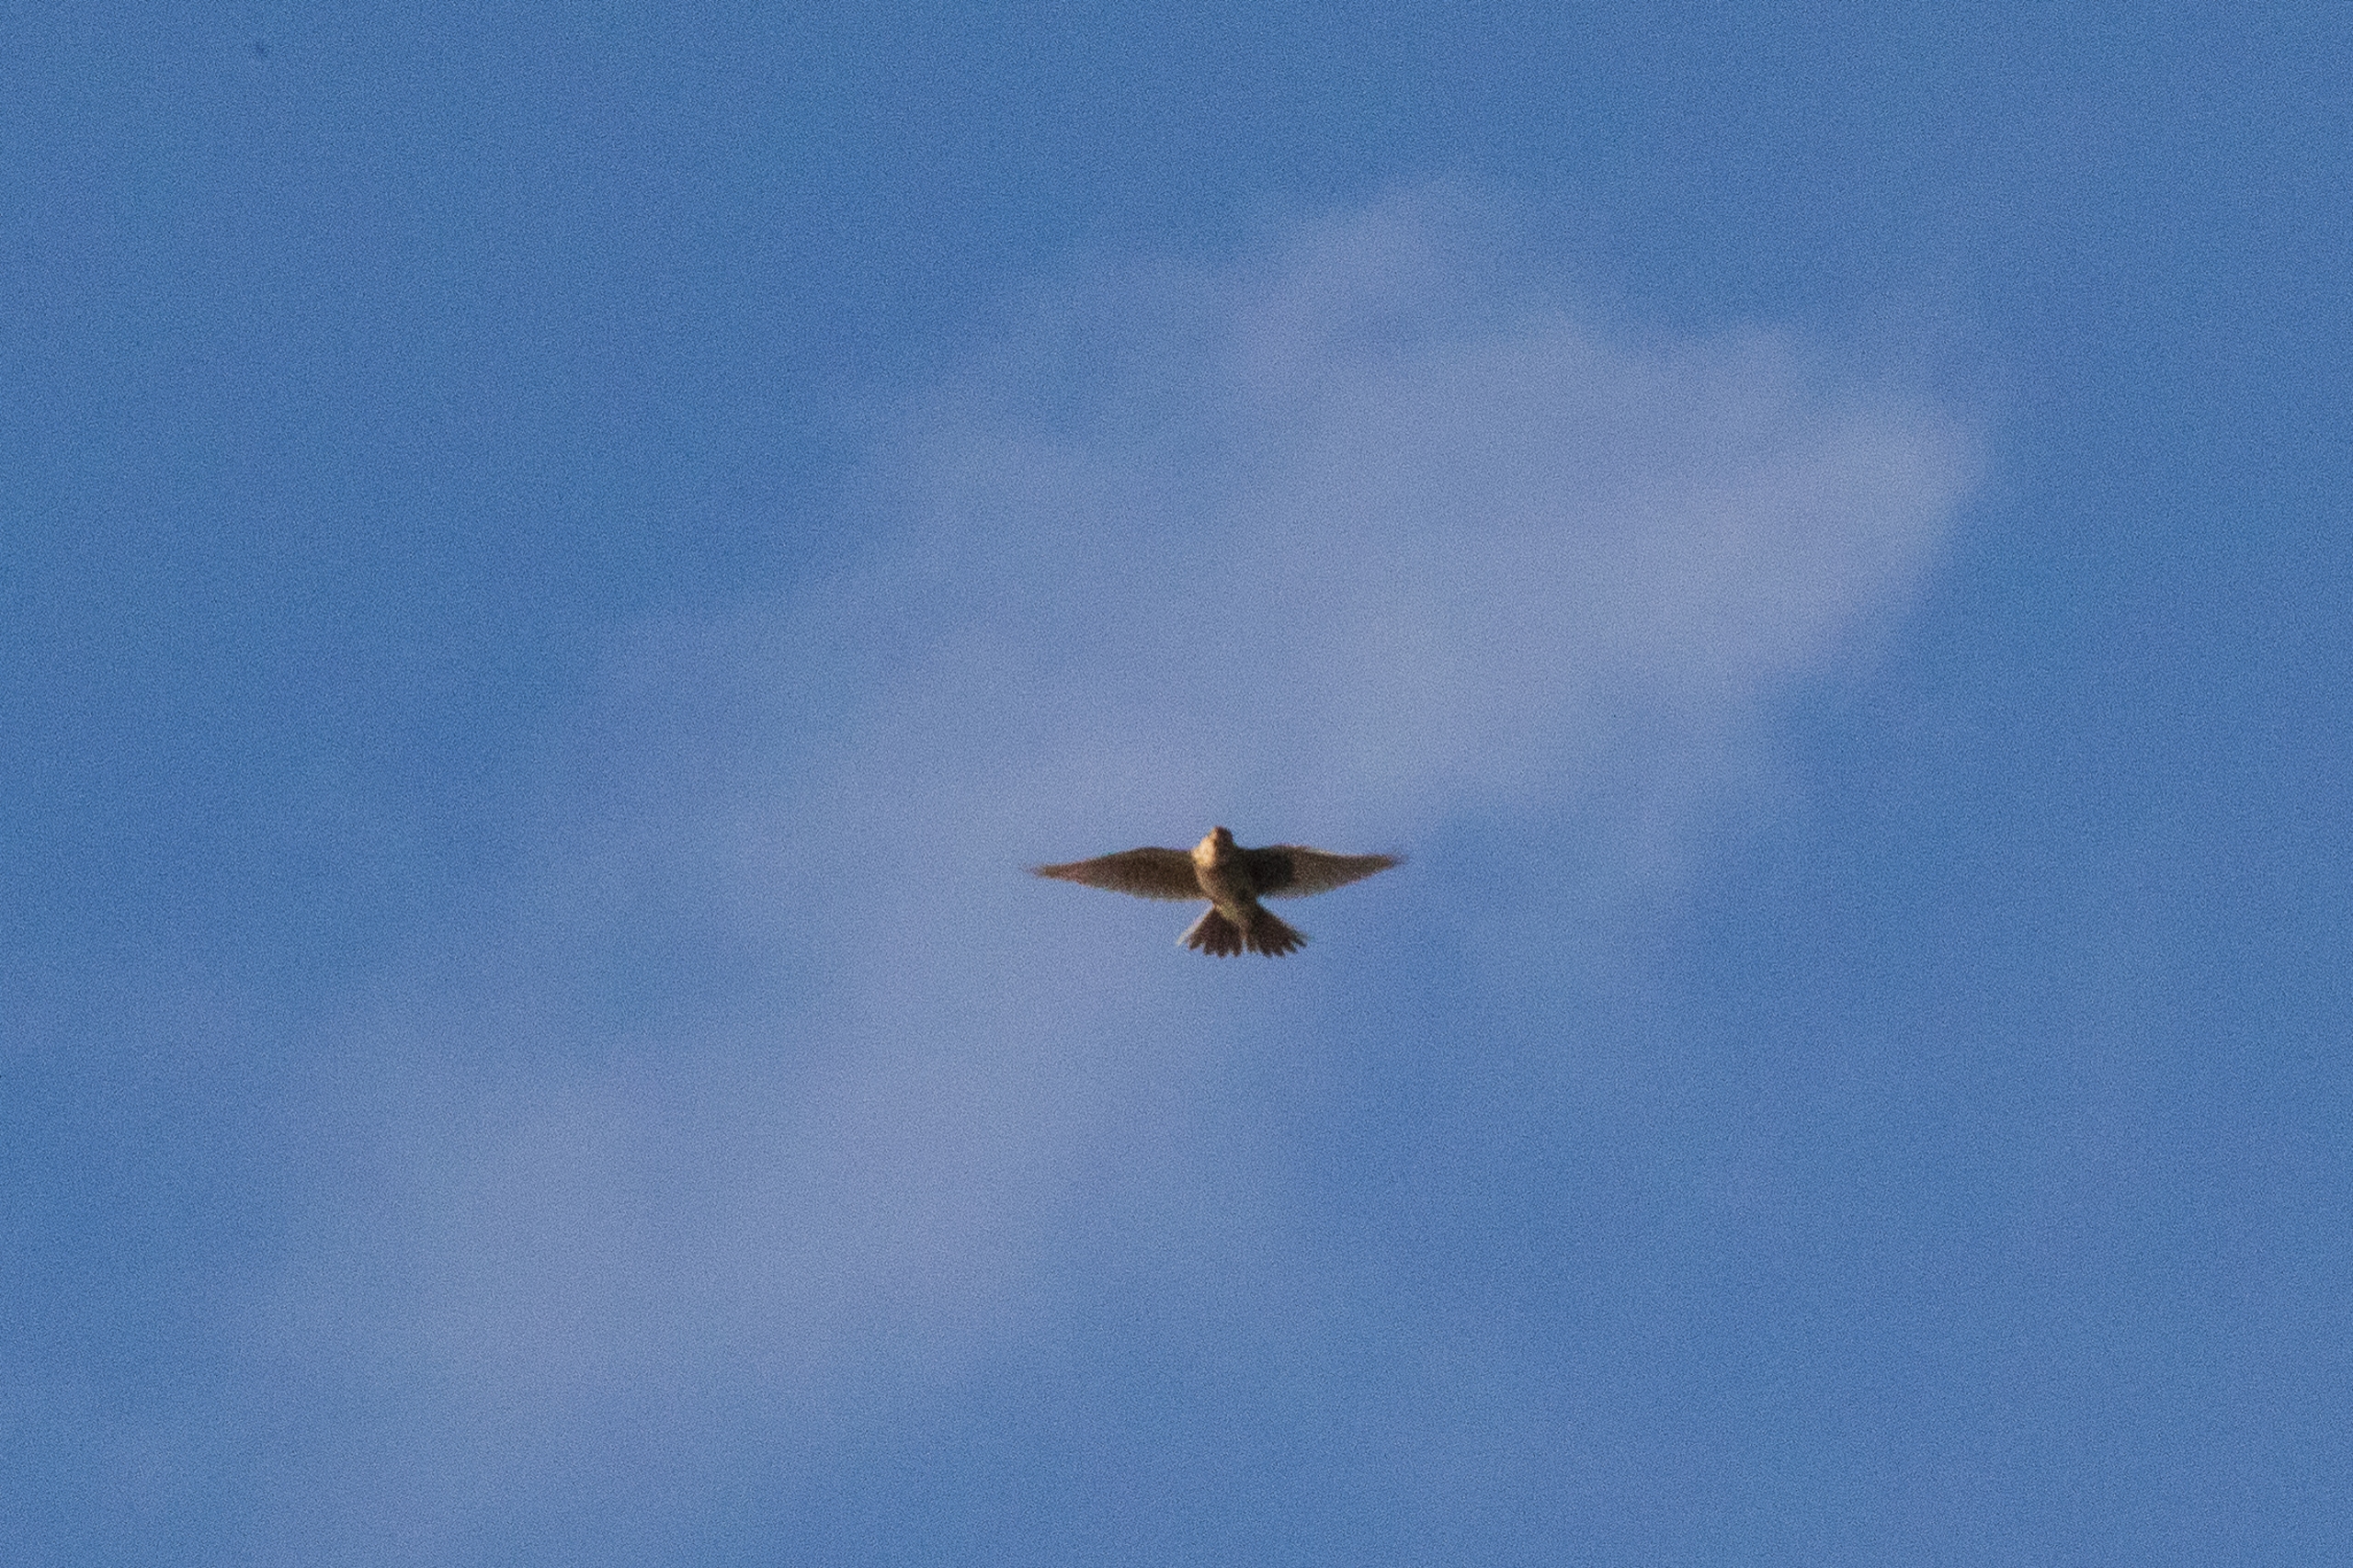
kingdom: Animalia
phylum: Chordata
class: Aves
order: Passeriformes
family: Alaudidae
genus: Alauda
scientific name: Alauda arvensis
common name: Sanglærke
